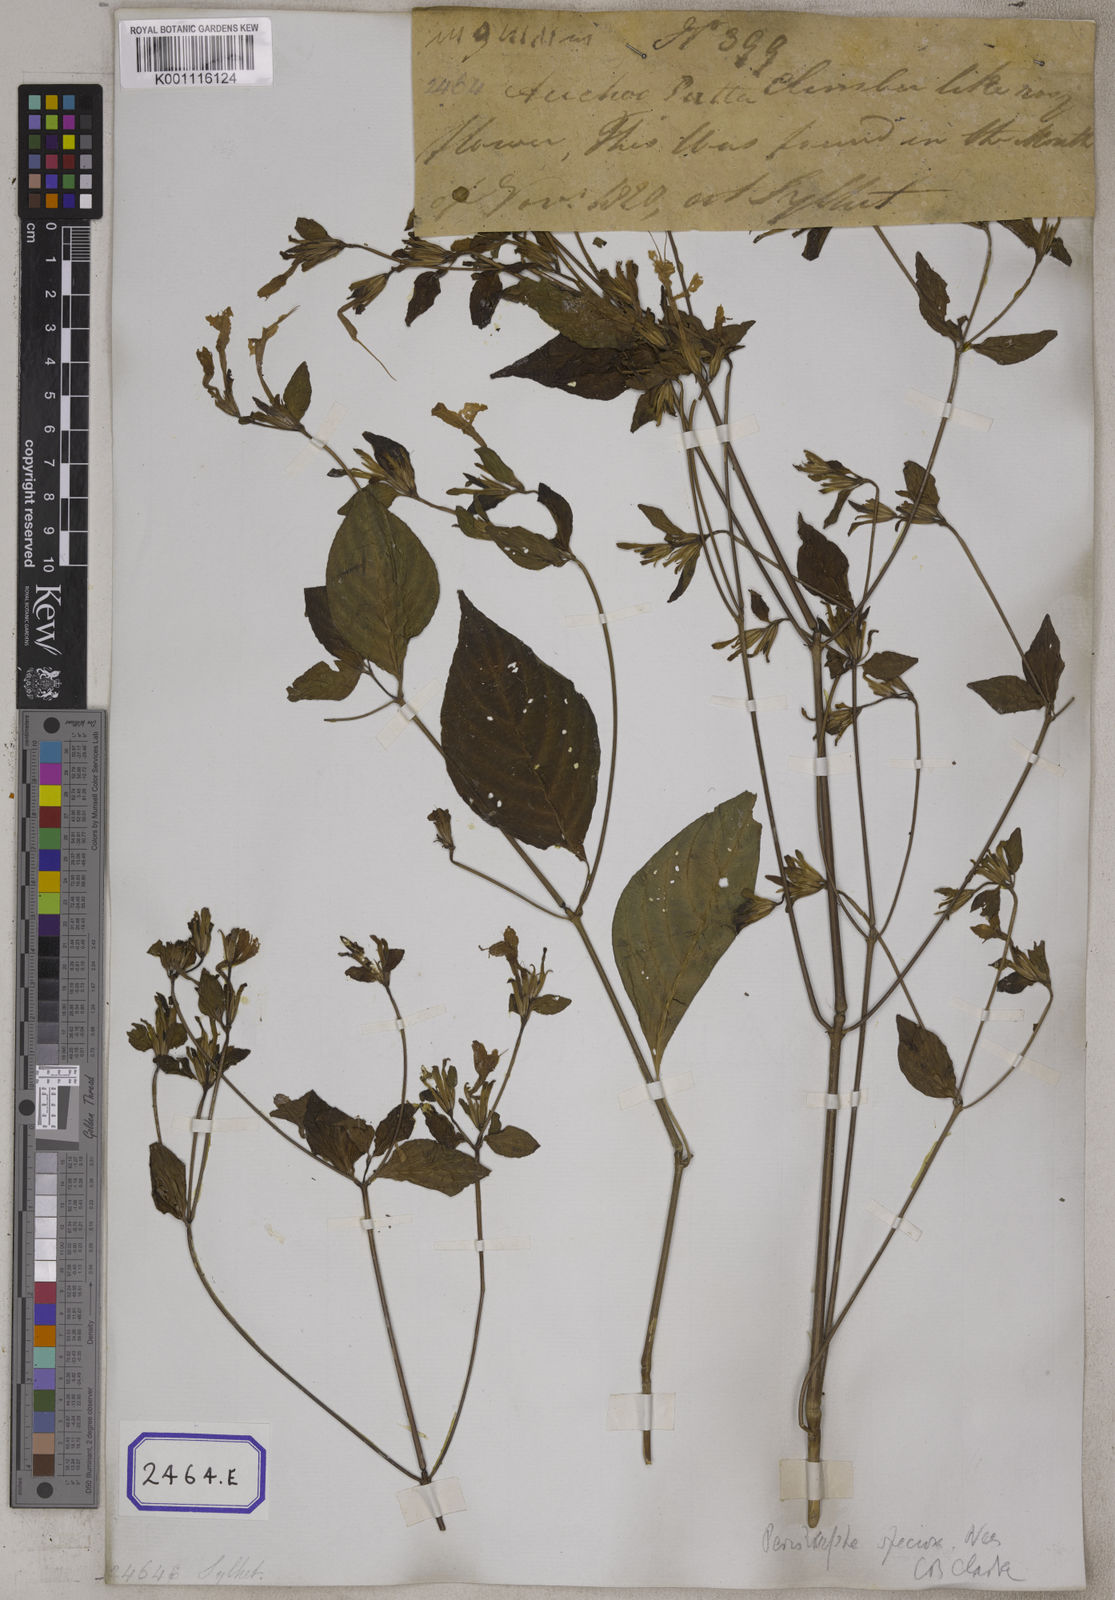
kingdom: Plantae
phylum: Tracheophyta
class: Magnoliopsida
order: Lamiales
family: Acanthaceae
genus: Dicliptera
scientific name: Dicliptera raui
